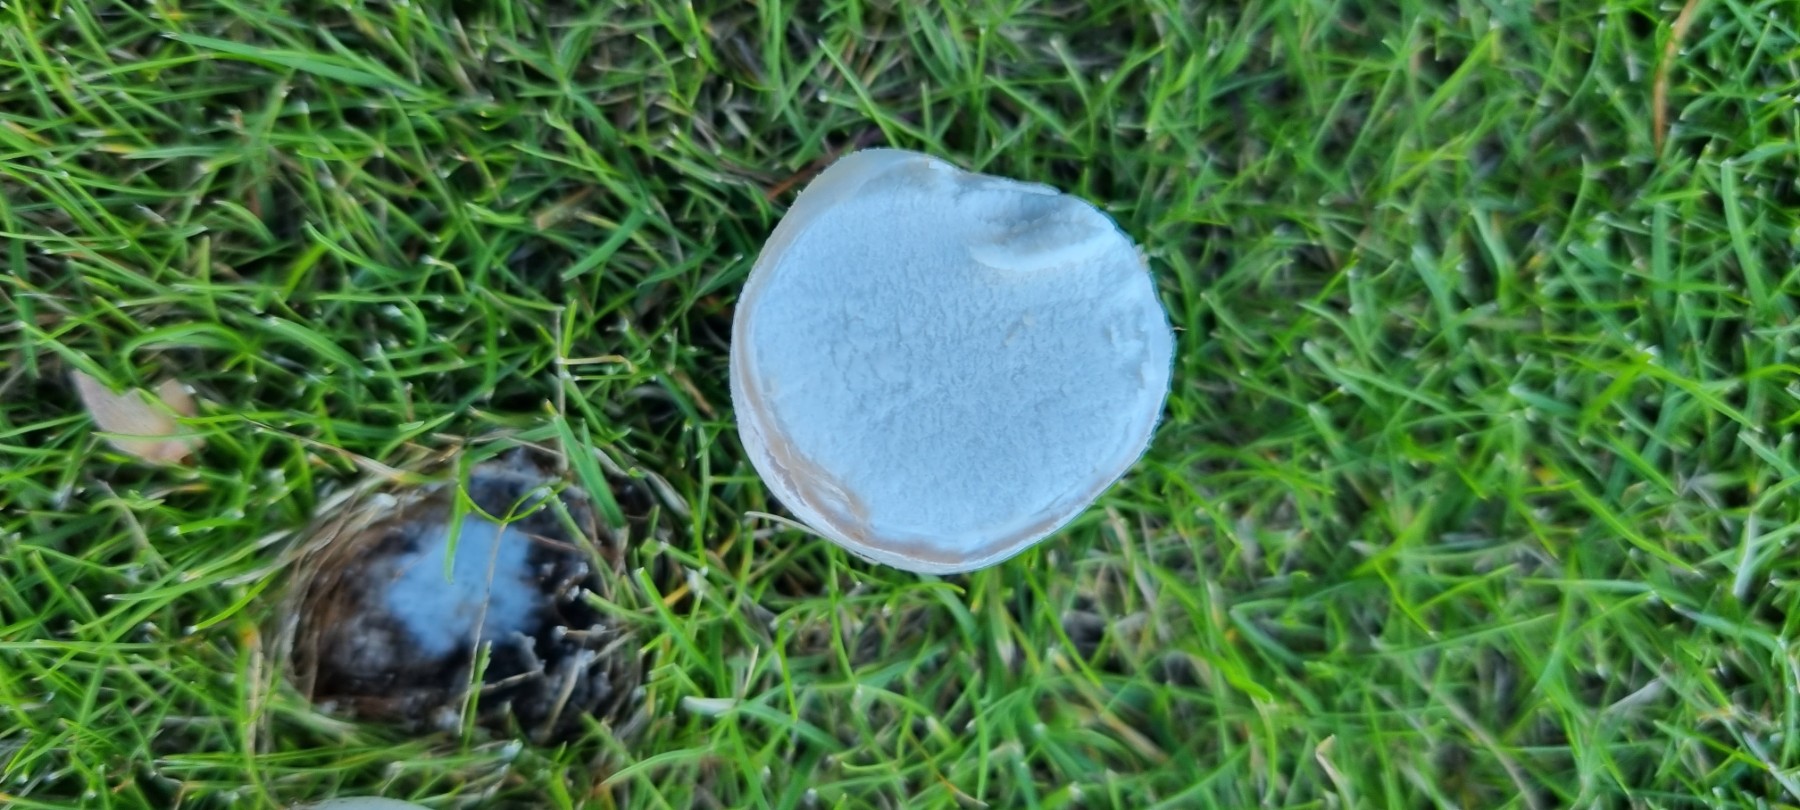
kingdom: Fungi
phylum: Basidiomycota
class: Agaricomycetes
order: Agaricales
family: Lycoperdaceae
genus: Bovista
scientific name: Bovista
